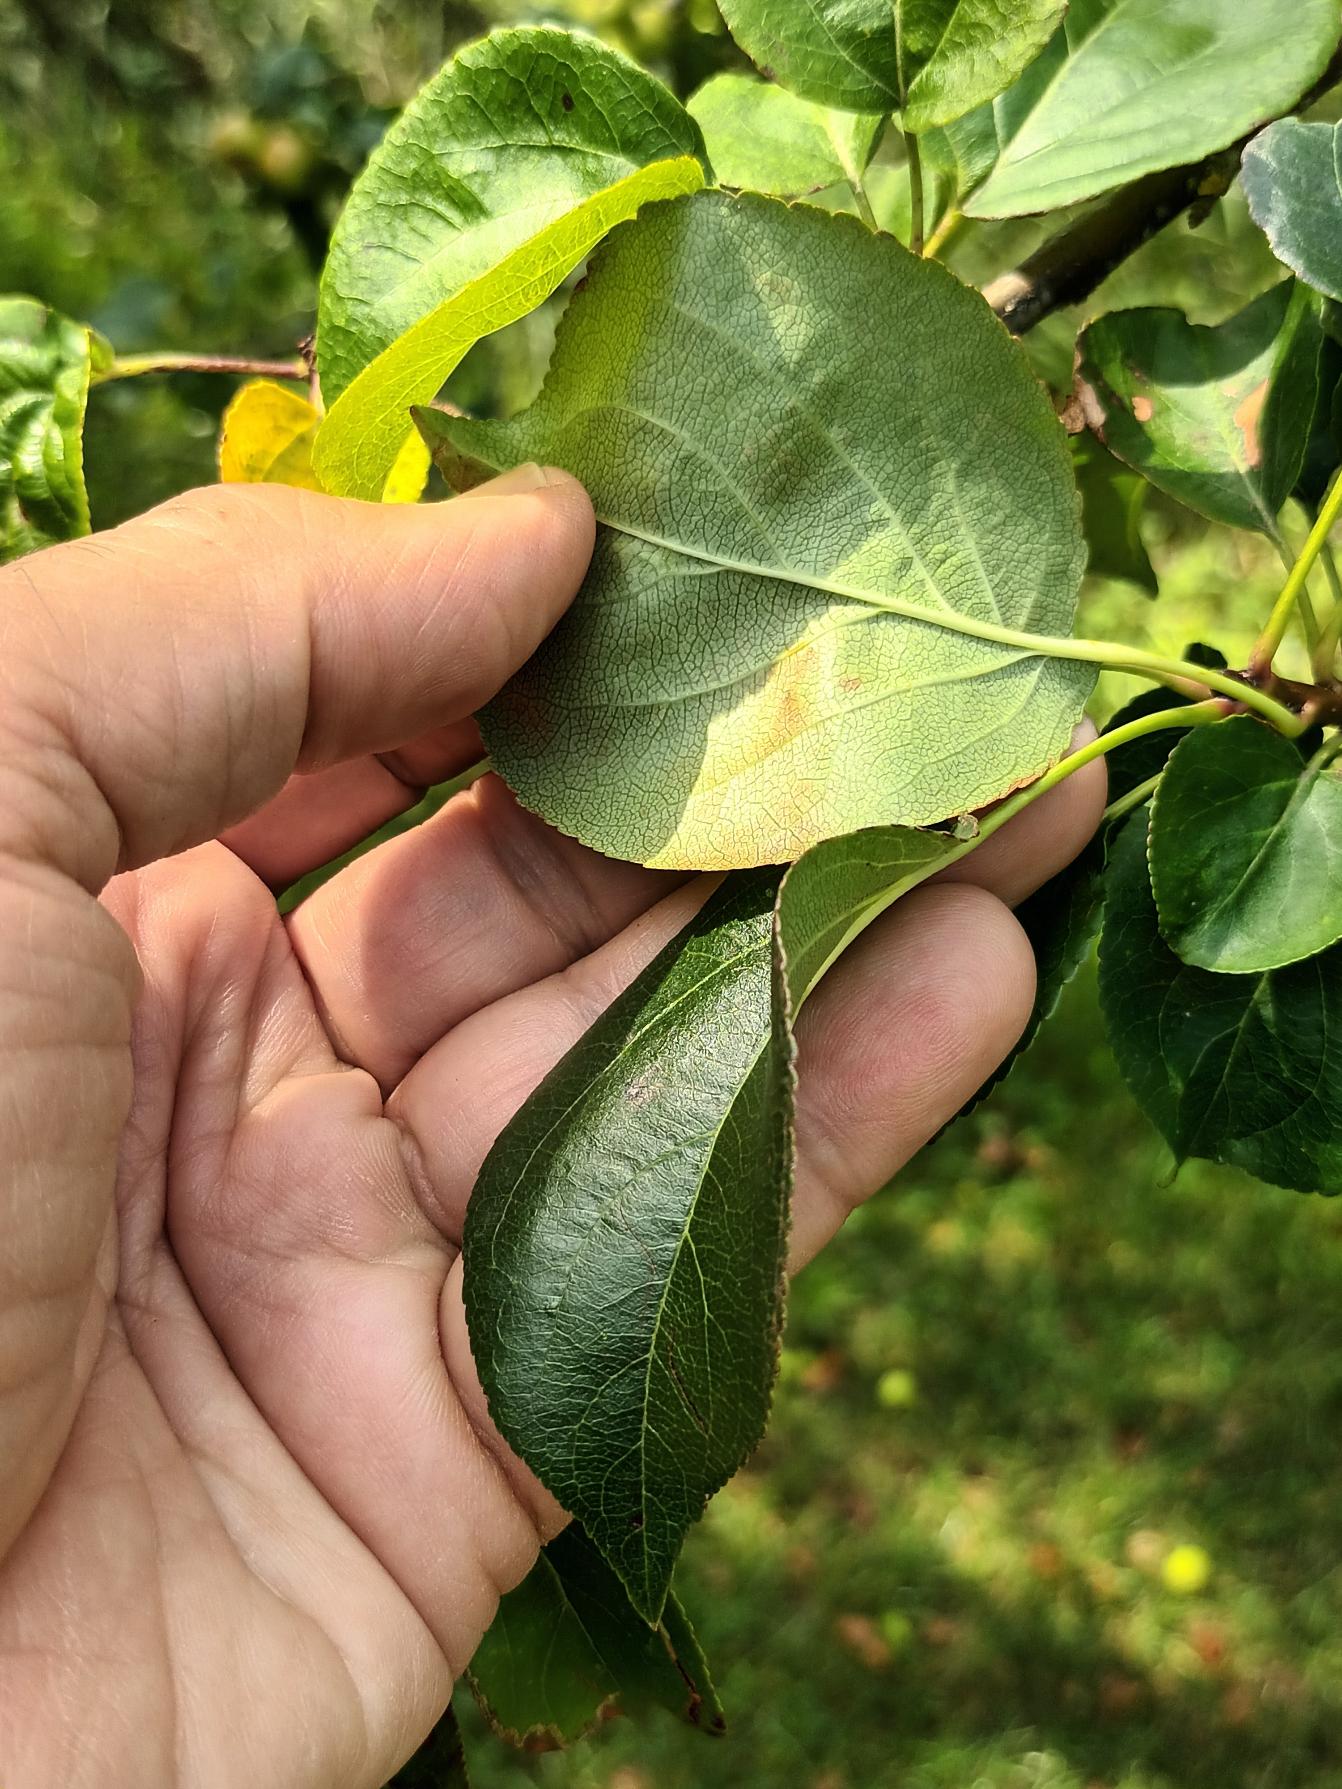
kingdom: Plantae
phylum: Tracheophyta
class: Magnoliopsida
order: Rosales
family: Rosaceae
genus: Malus
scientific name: Malus sylvestris
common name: Skov-æble
